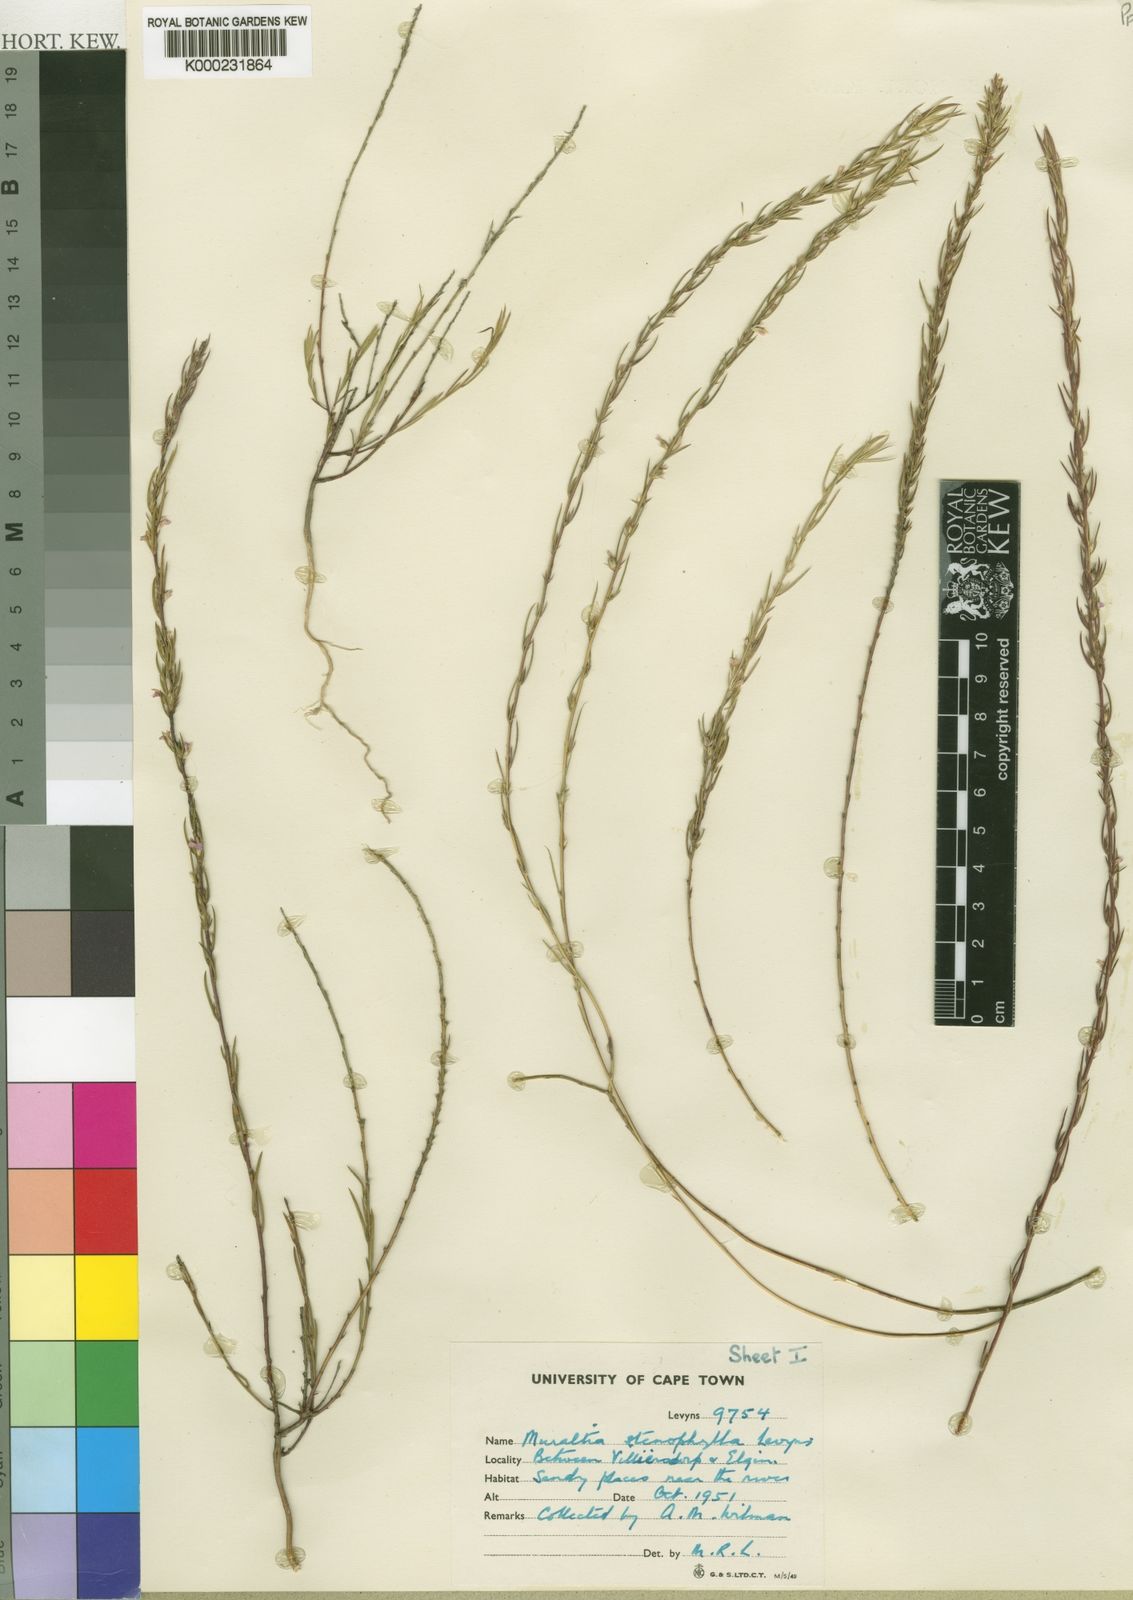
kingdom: Plantae
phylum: Tracheophyta
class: Magnoliopsida
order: Fabales
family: Polygalaceae
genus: Muraltia
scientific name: Muraltia stenophylla
